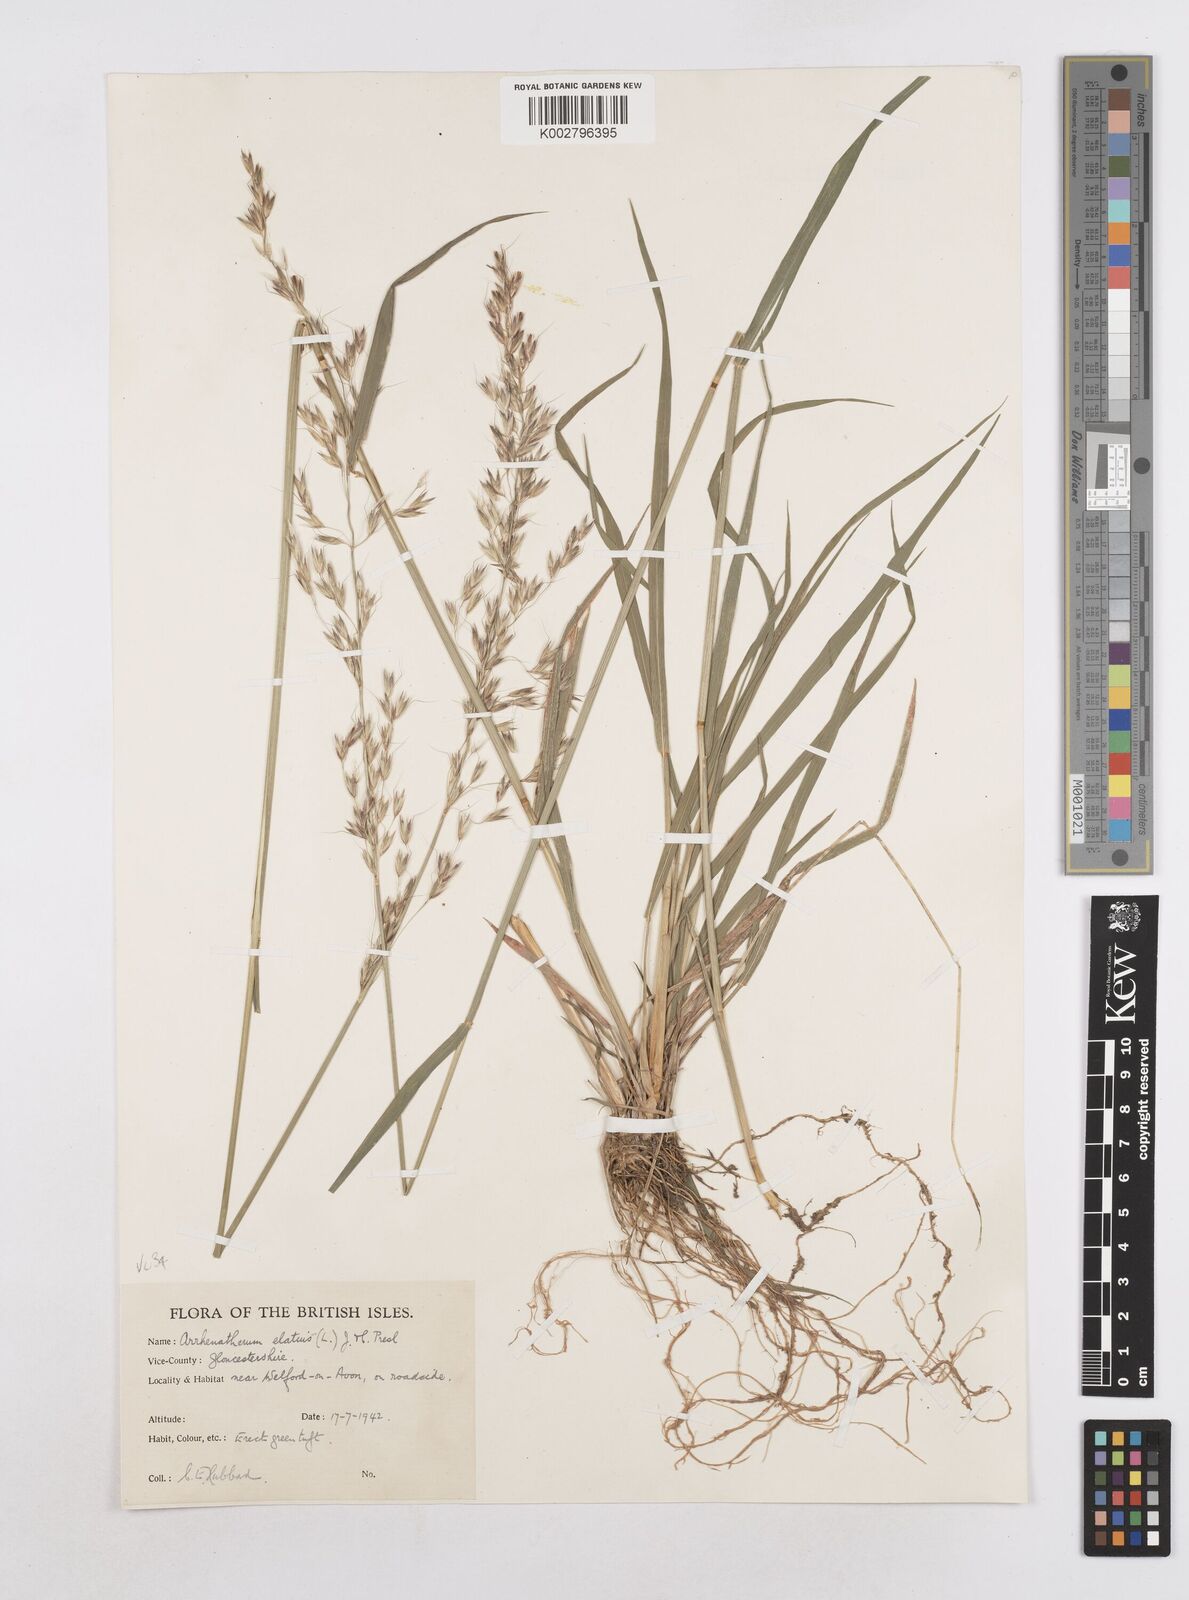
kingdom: Plantae
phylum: Tracheophyta
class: Liliopsida
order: Poales
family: Poaceae
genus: Arrhenatherum
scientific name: Arrhenatherum elatius
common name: Tall oatgrass
